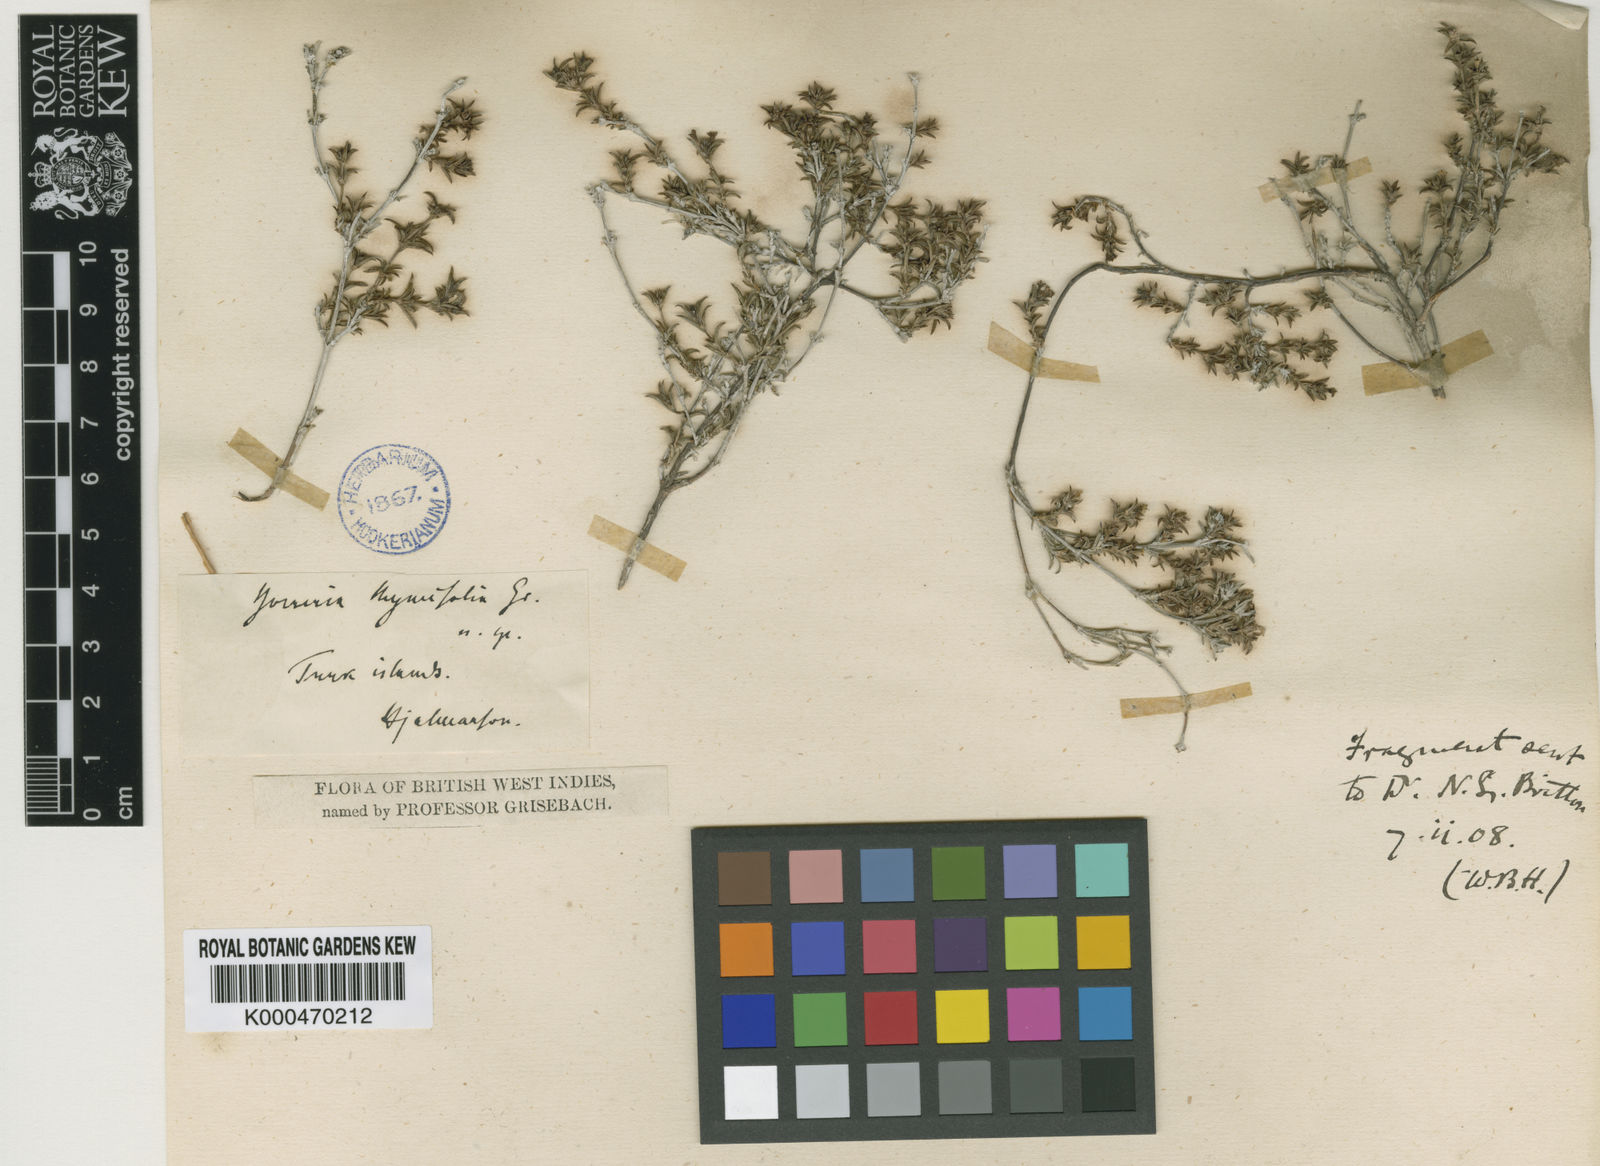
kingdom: Plantae
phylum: Tracheophyta
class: Magnoliopsida
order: Gentianales
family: Rubiaceae
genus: Spermacoce
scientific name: Spermacoce thymifolia
